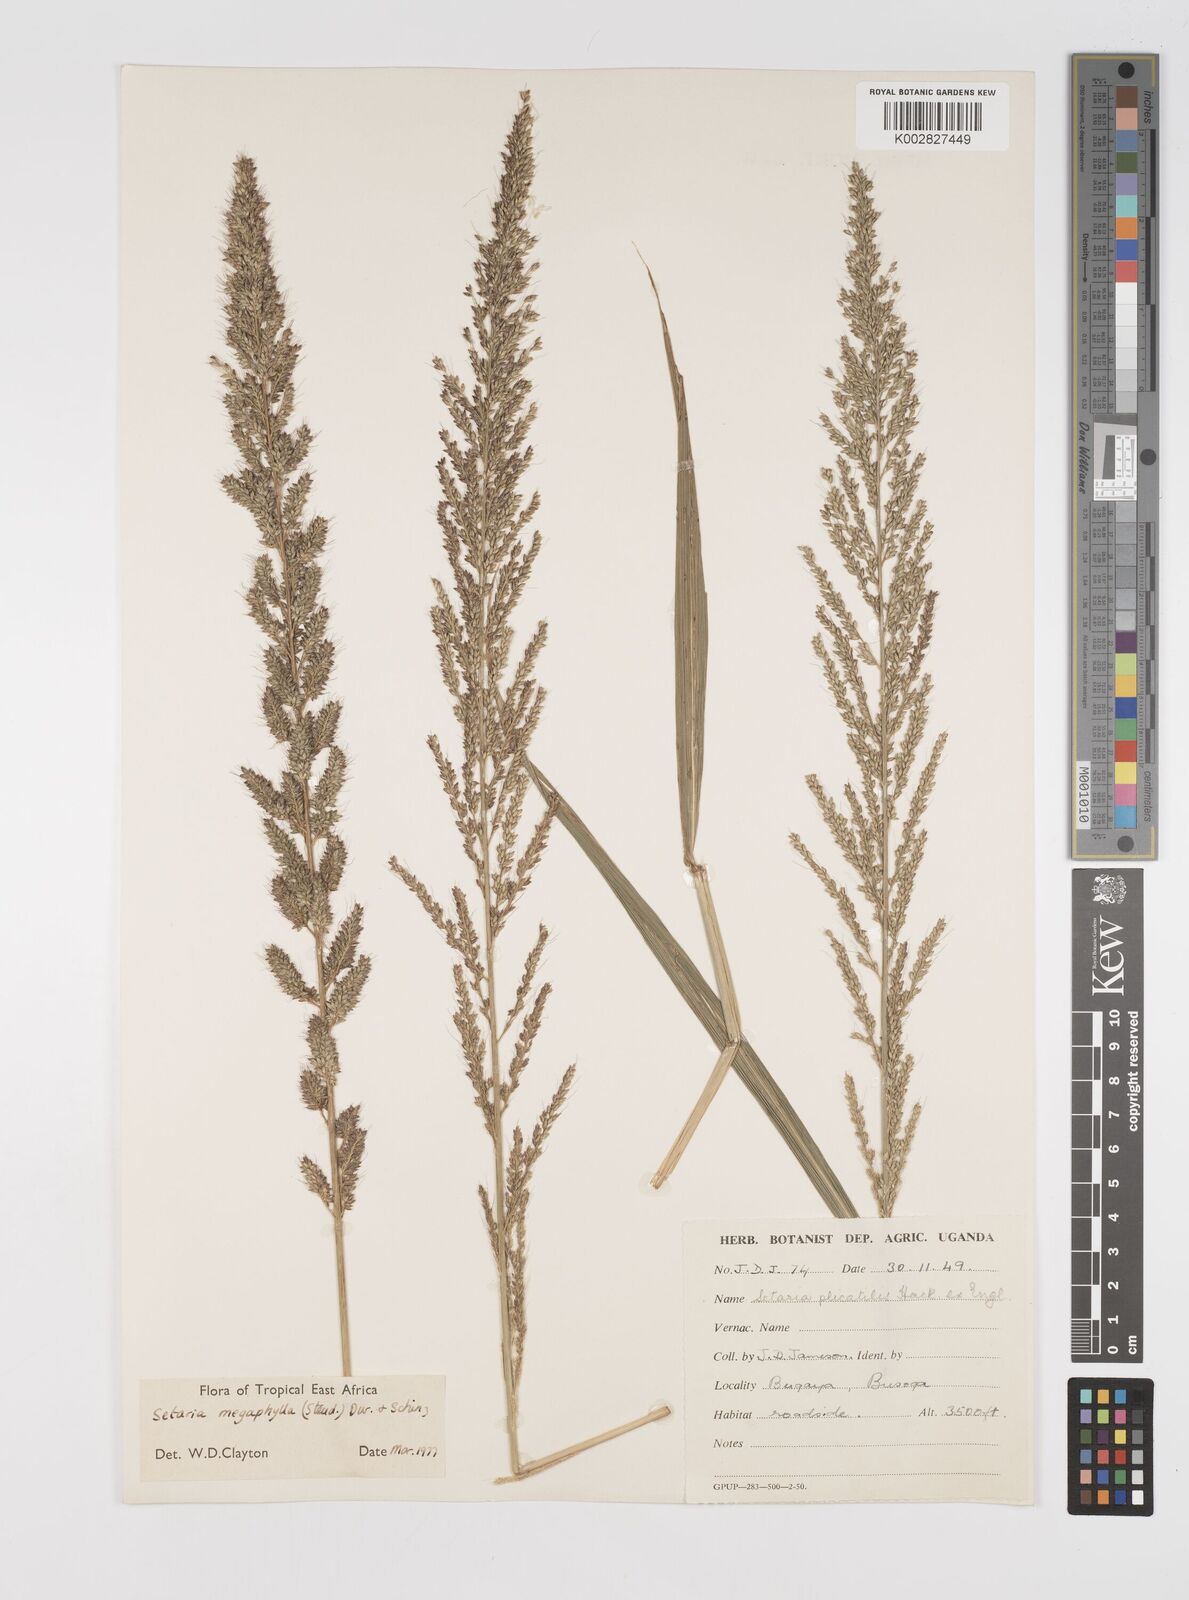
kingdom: Plantae
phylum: Tracheophyta
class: Liliopsida
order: Poales
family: Poaceae
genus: Setaria
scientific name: Setaria megaphylla
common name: Bigleaf bristlegrass
